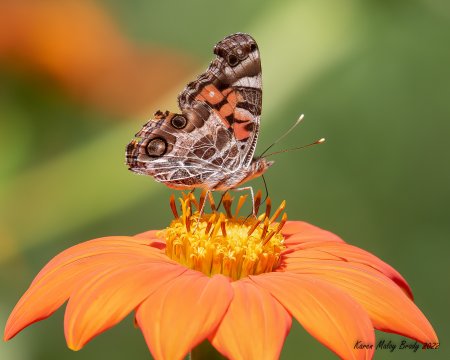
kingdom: Animalia
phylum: Arthropoda
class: Insecta
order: Lepidoptera
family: Nymphalidae
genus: Vanessa
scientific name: Vanessa virginiensis
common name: American Lady
